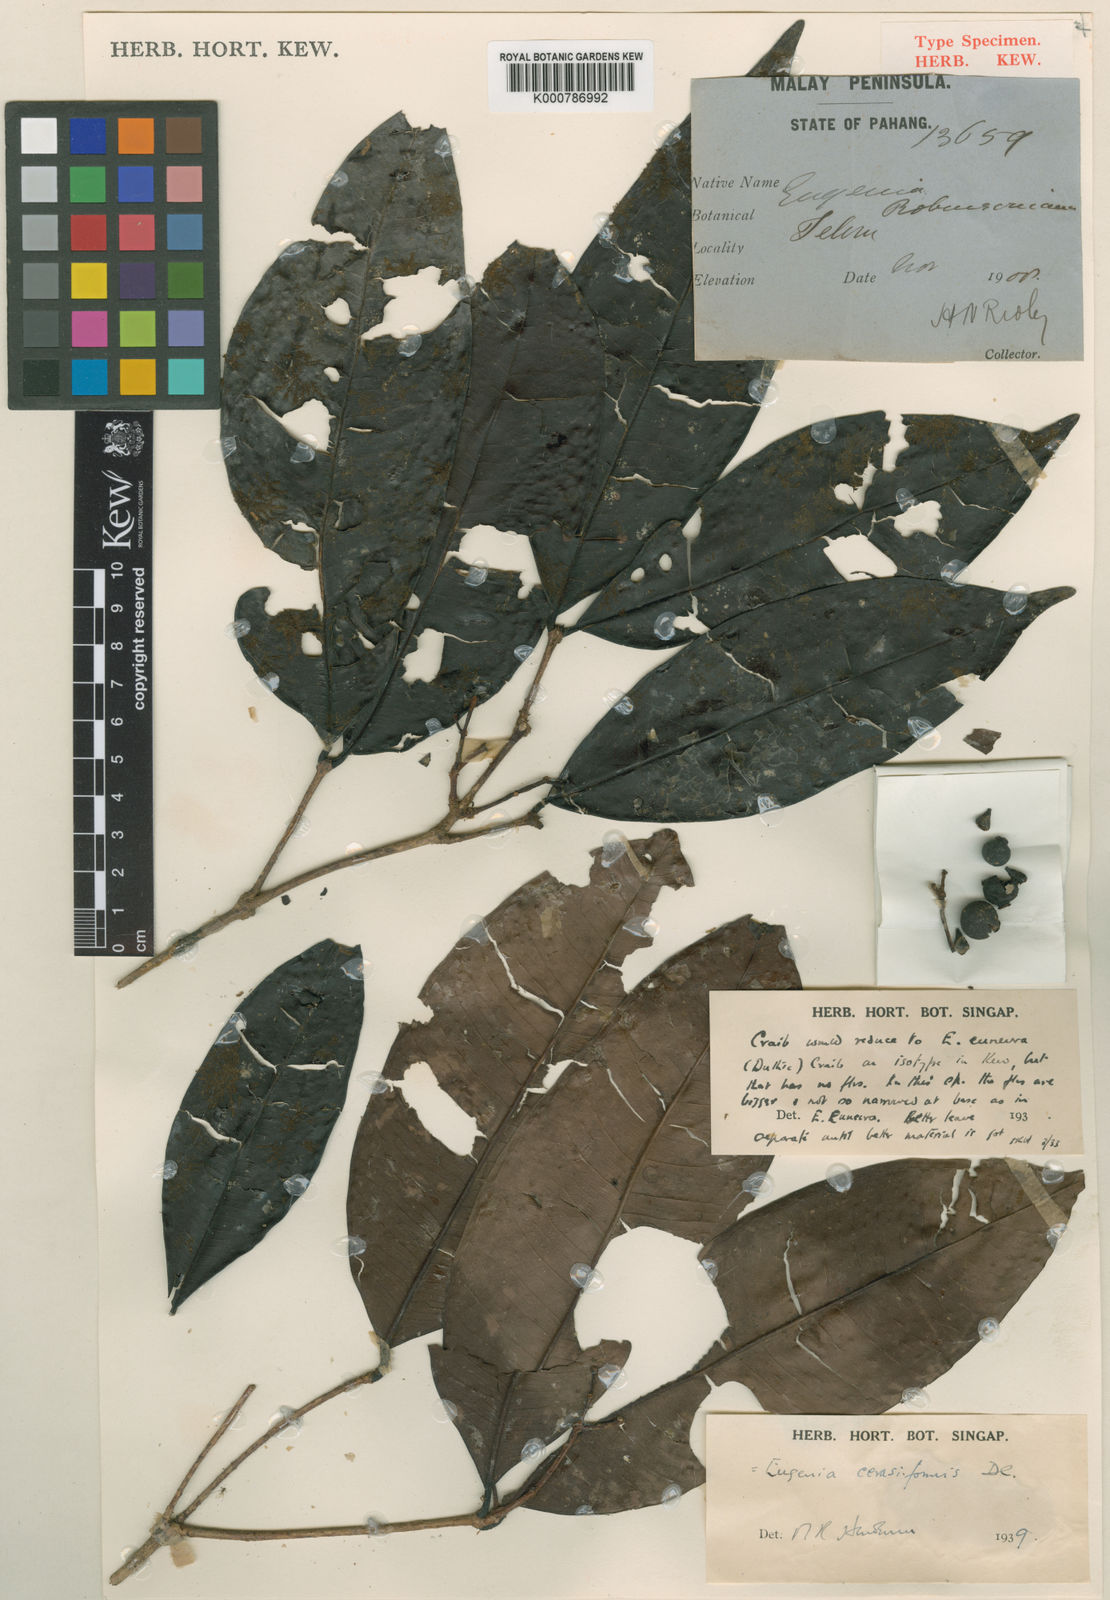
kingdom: Plantae
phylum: Tracheophyta
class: Magnoliopsida
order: Myrtales
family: Myrtaceae
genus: Syzygium
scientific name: Syzygium racemosum
